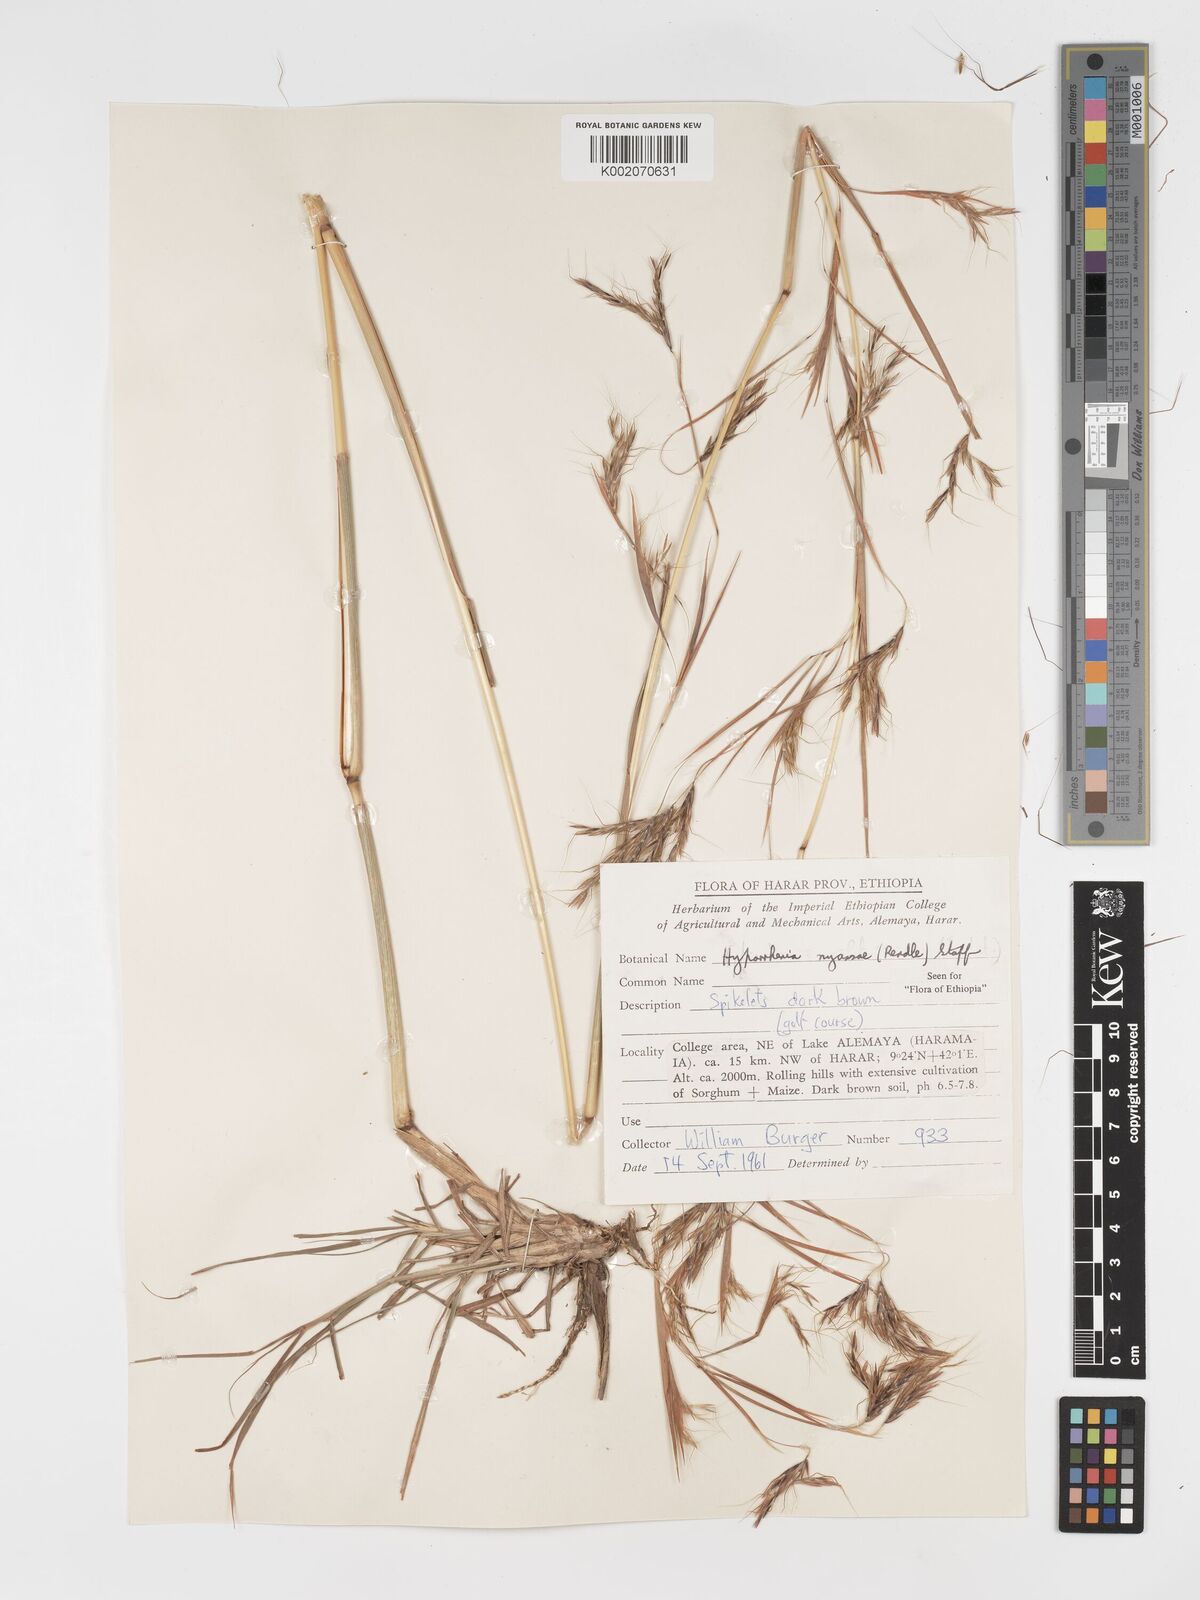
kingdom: Plantae
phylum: Tracheophyta
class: Liliopsida
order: Poales
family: Poaceae
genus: Hyparrhenia
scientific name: Hyparrhenia nyassae
